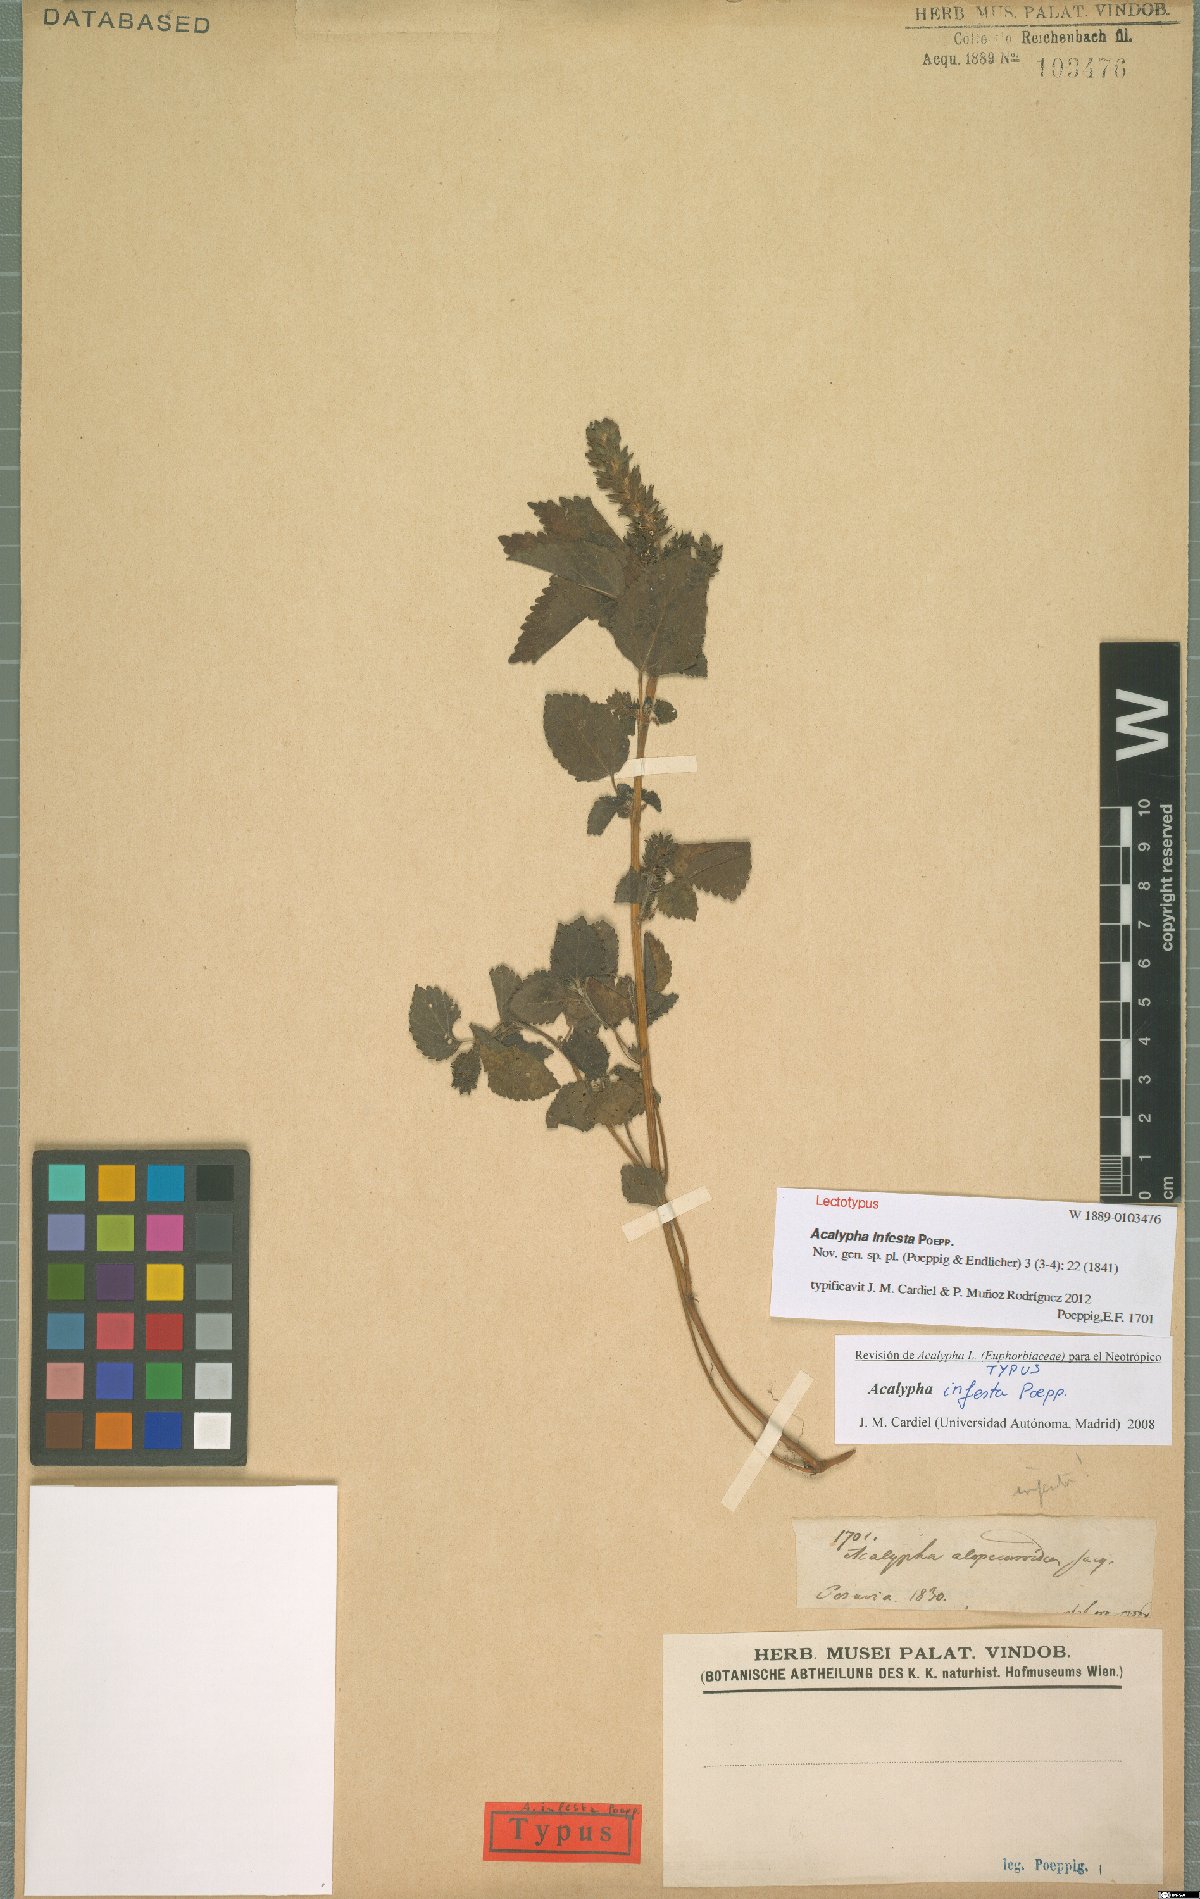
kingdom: Plantae
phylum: Tracheophyta
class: Magnoliopsida
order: Malpighiales
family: Euphorbiaceae
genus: Acalypha
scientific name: Acalypha infesta
